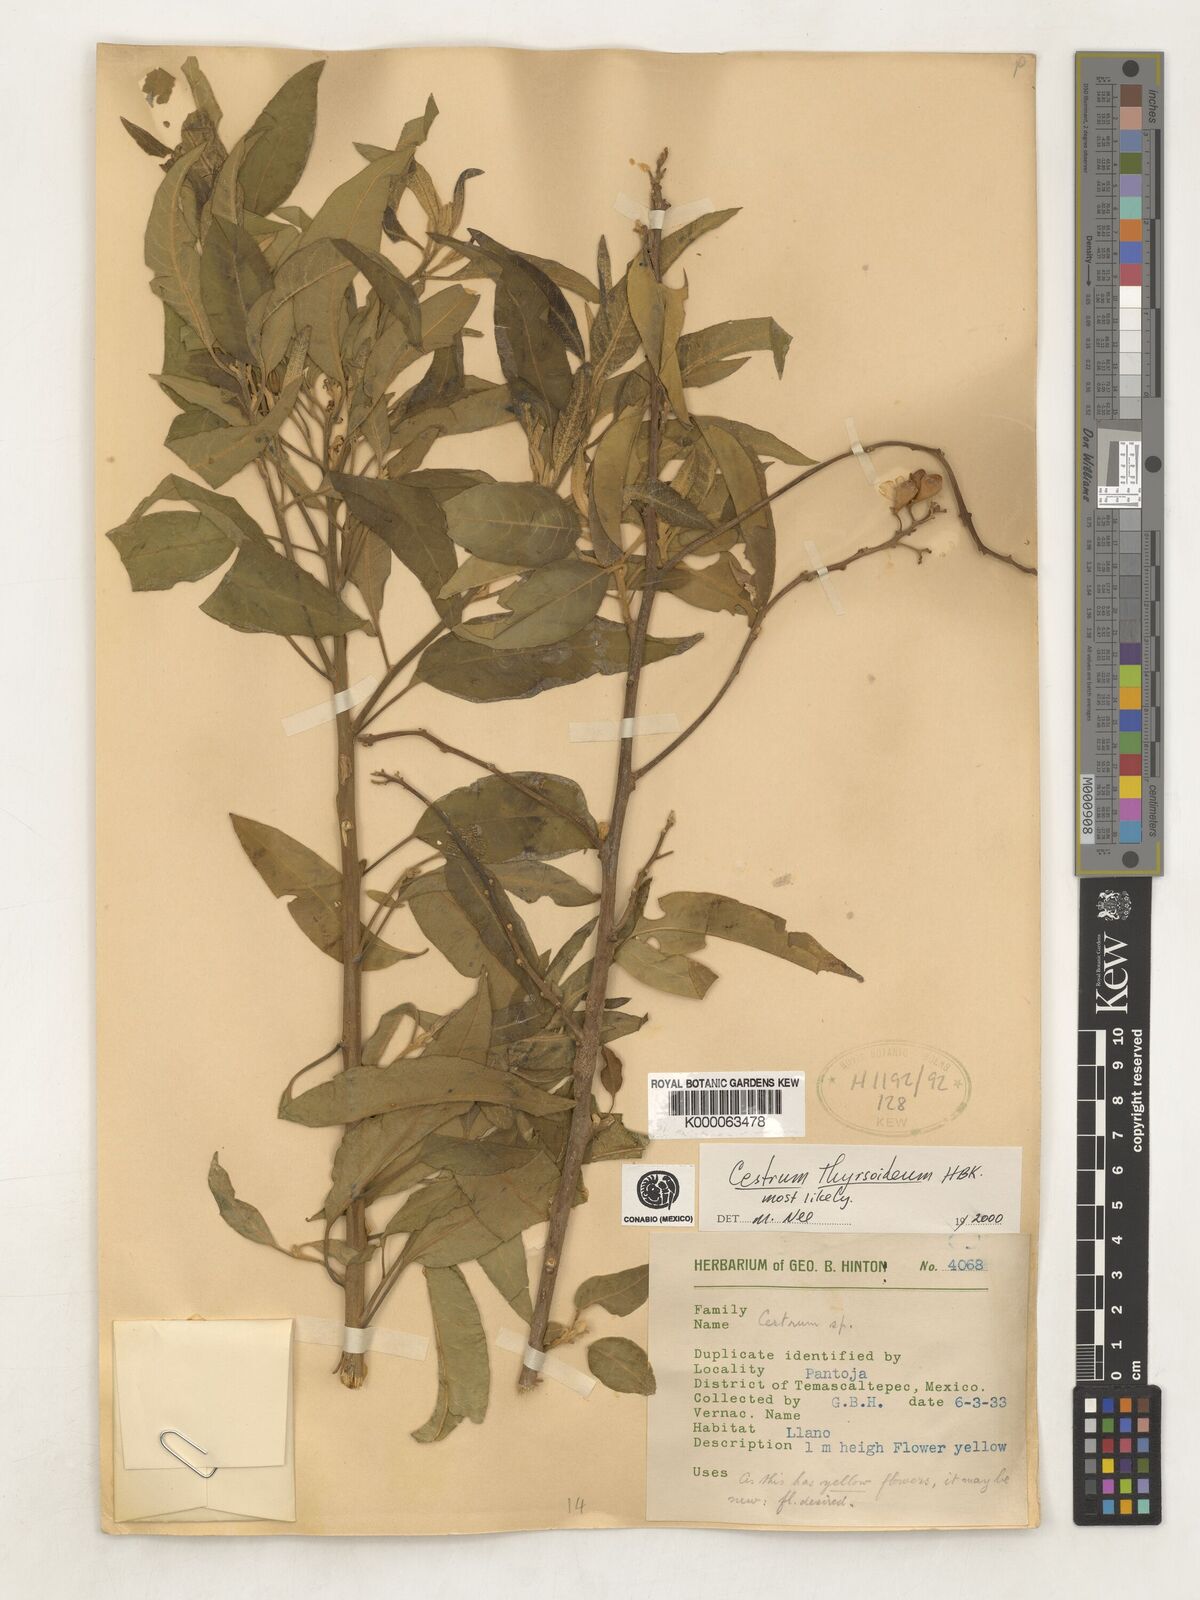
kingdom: Plantae
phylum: Tracheophyta
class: Magnoliopsida
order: Solanales
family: Solanaceae
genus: Cestrum
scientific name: Cestrum
